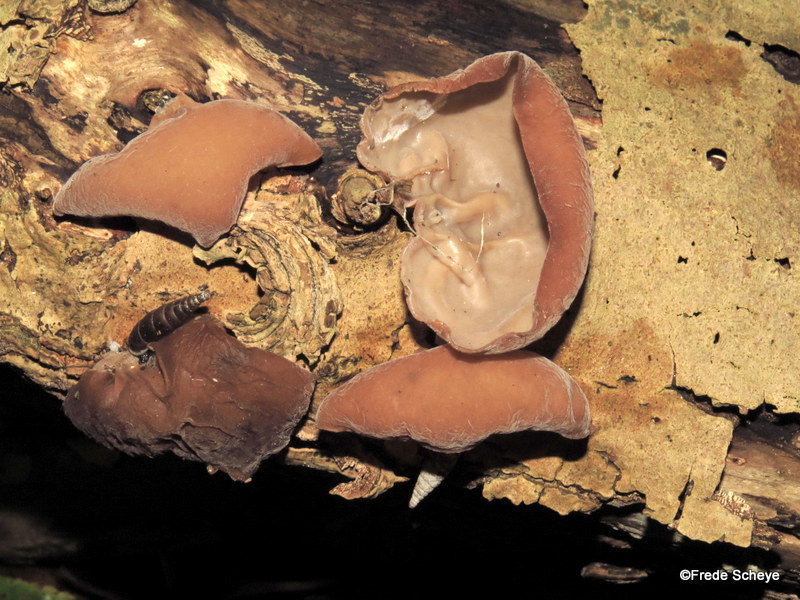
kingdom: Fungi
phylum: Basidiomycota
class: Agaricomycetes
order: Auriculariales
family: Auriculariaceae
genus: Auricularia
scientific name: Auricularia auricula-judae
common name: almindelig judasøre
